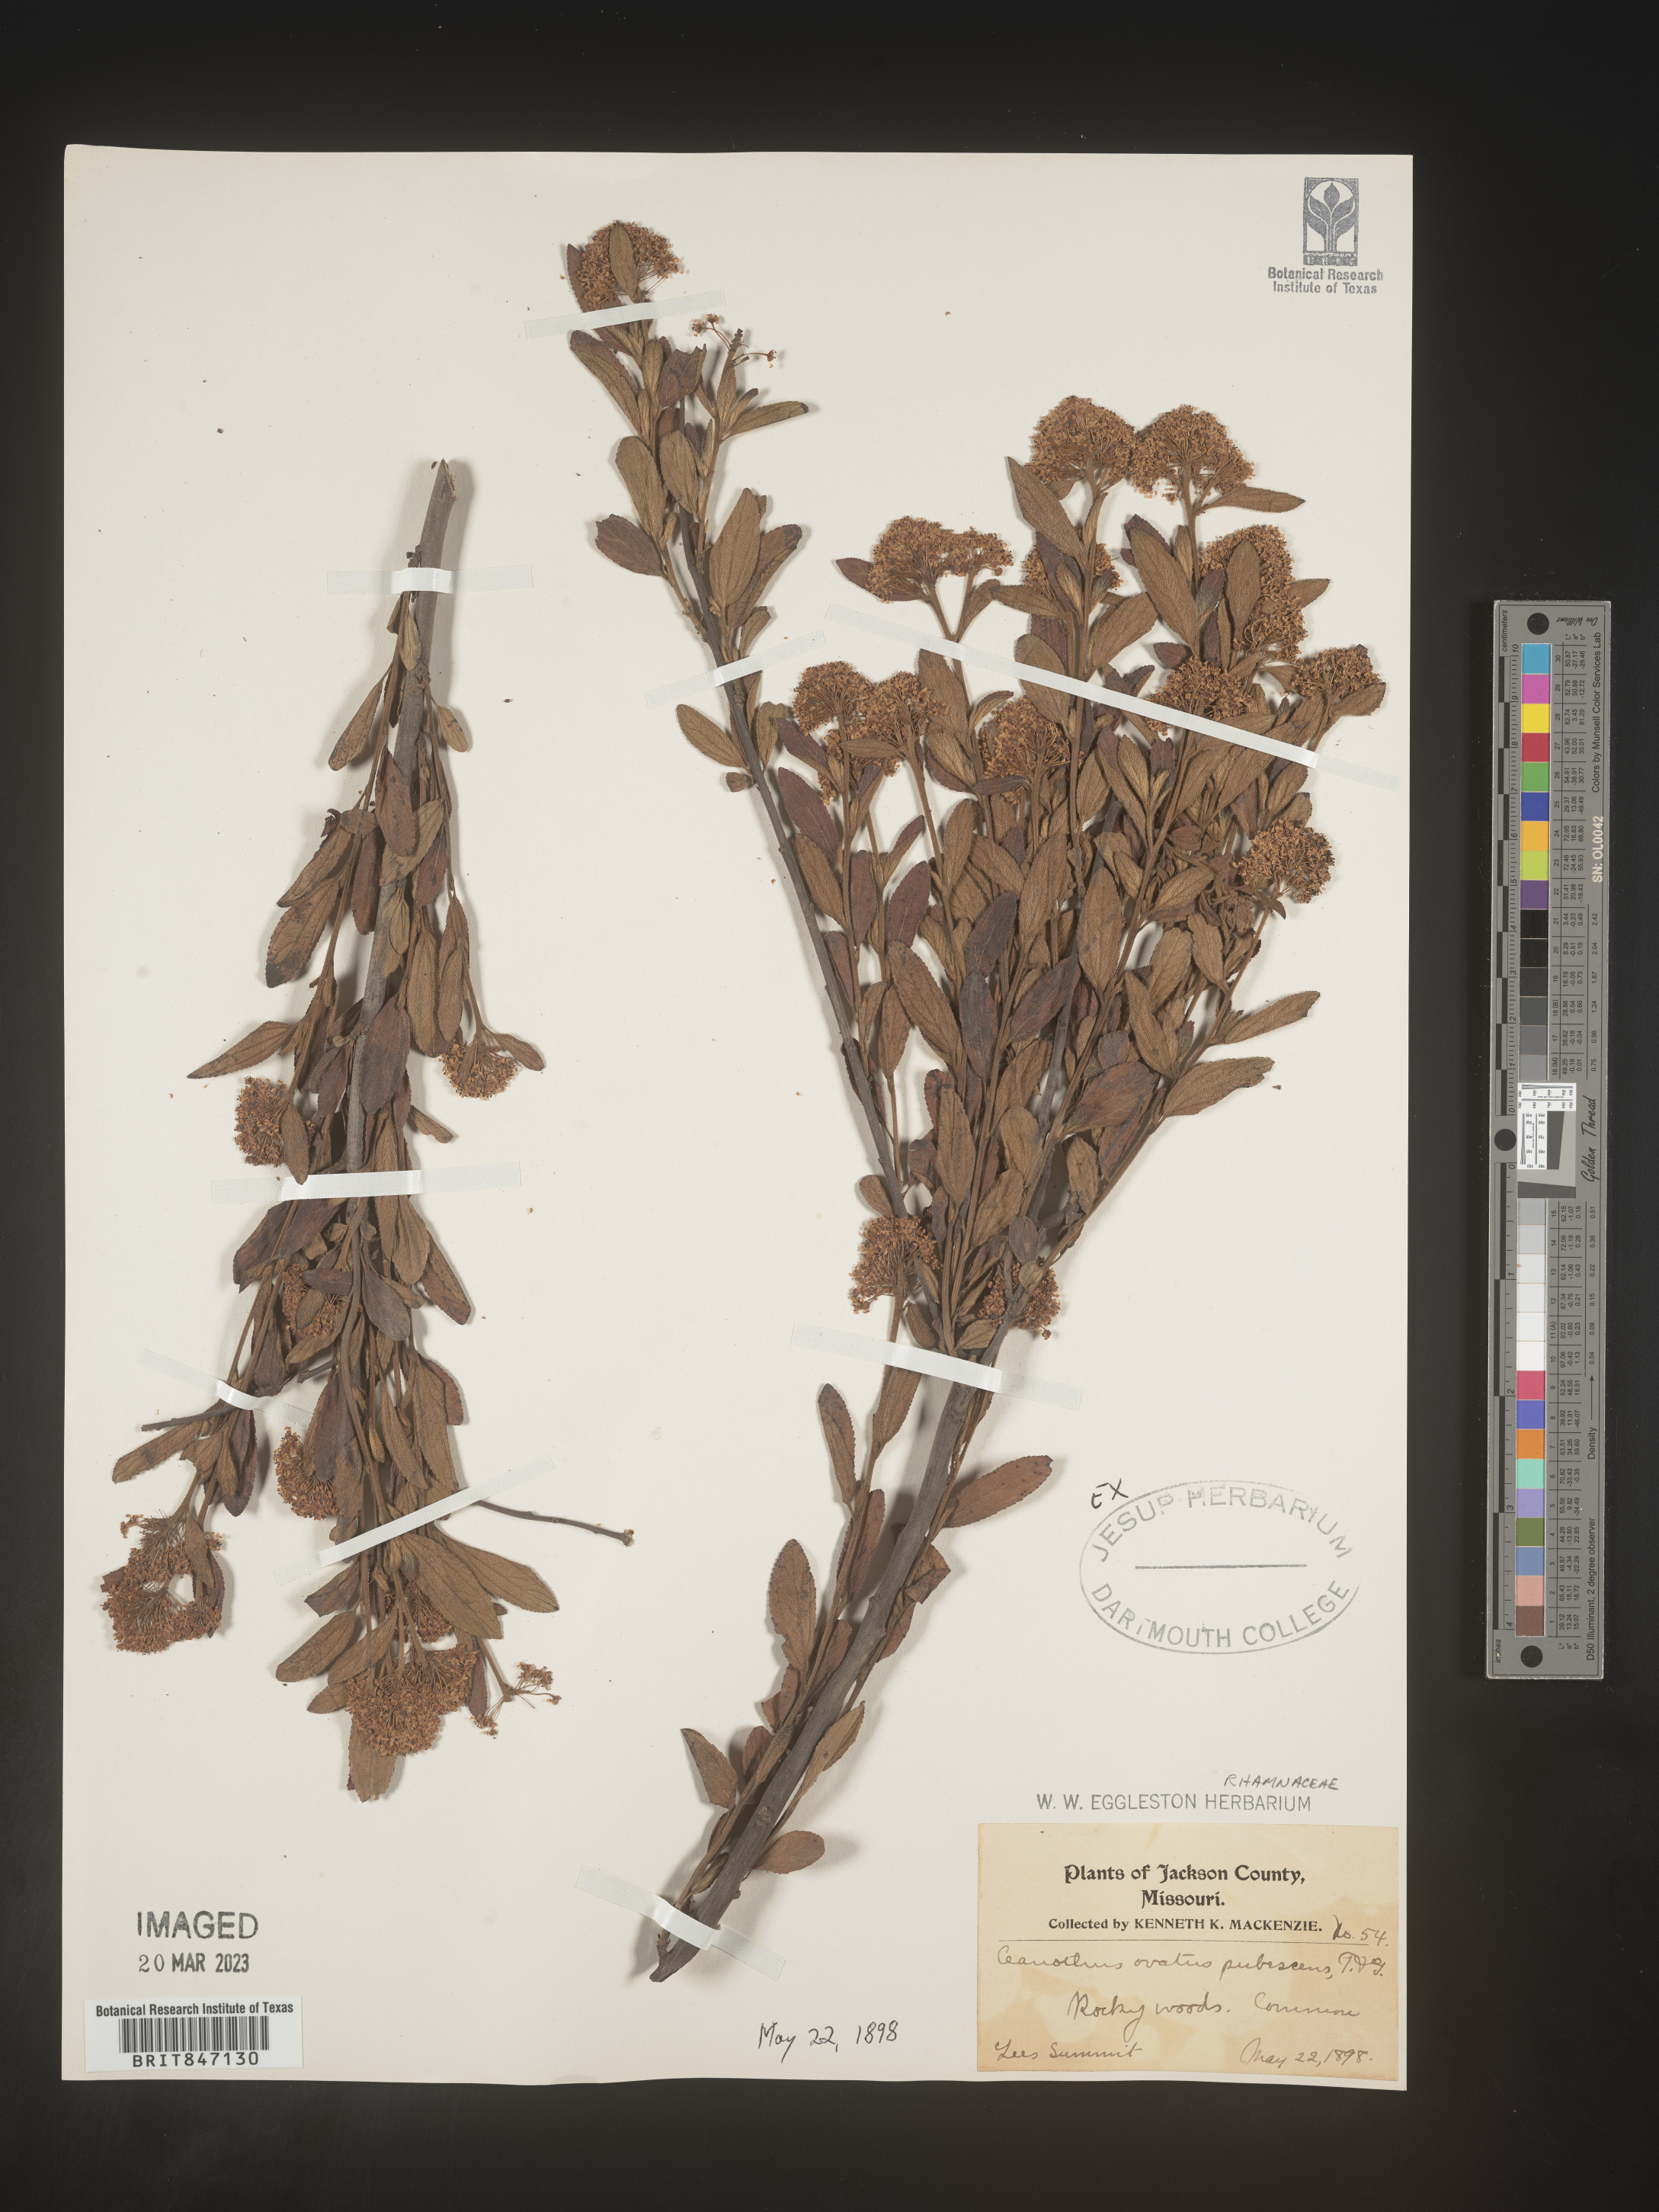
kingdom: Plantae
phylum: Tracheophyta
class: Magnoliopsida
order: Rosales
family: Rhamnaceae
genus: Ceanothus
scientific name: Ceanothus
